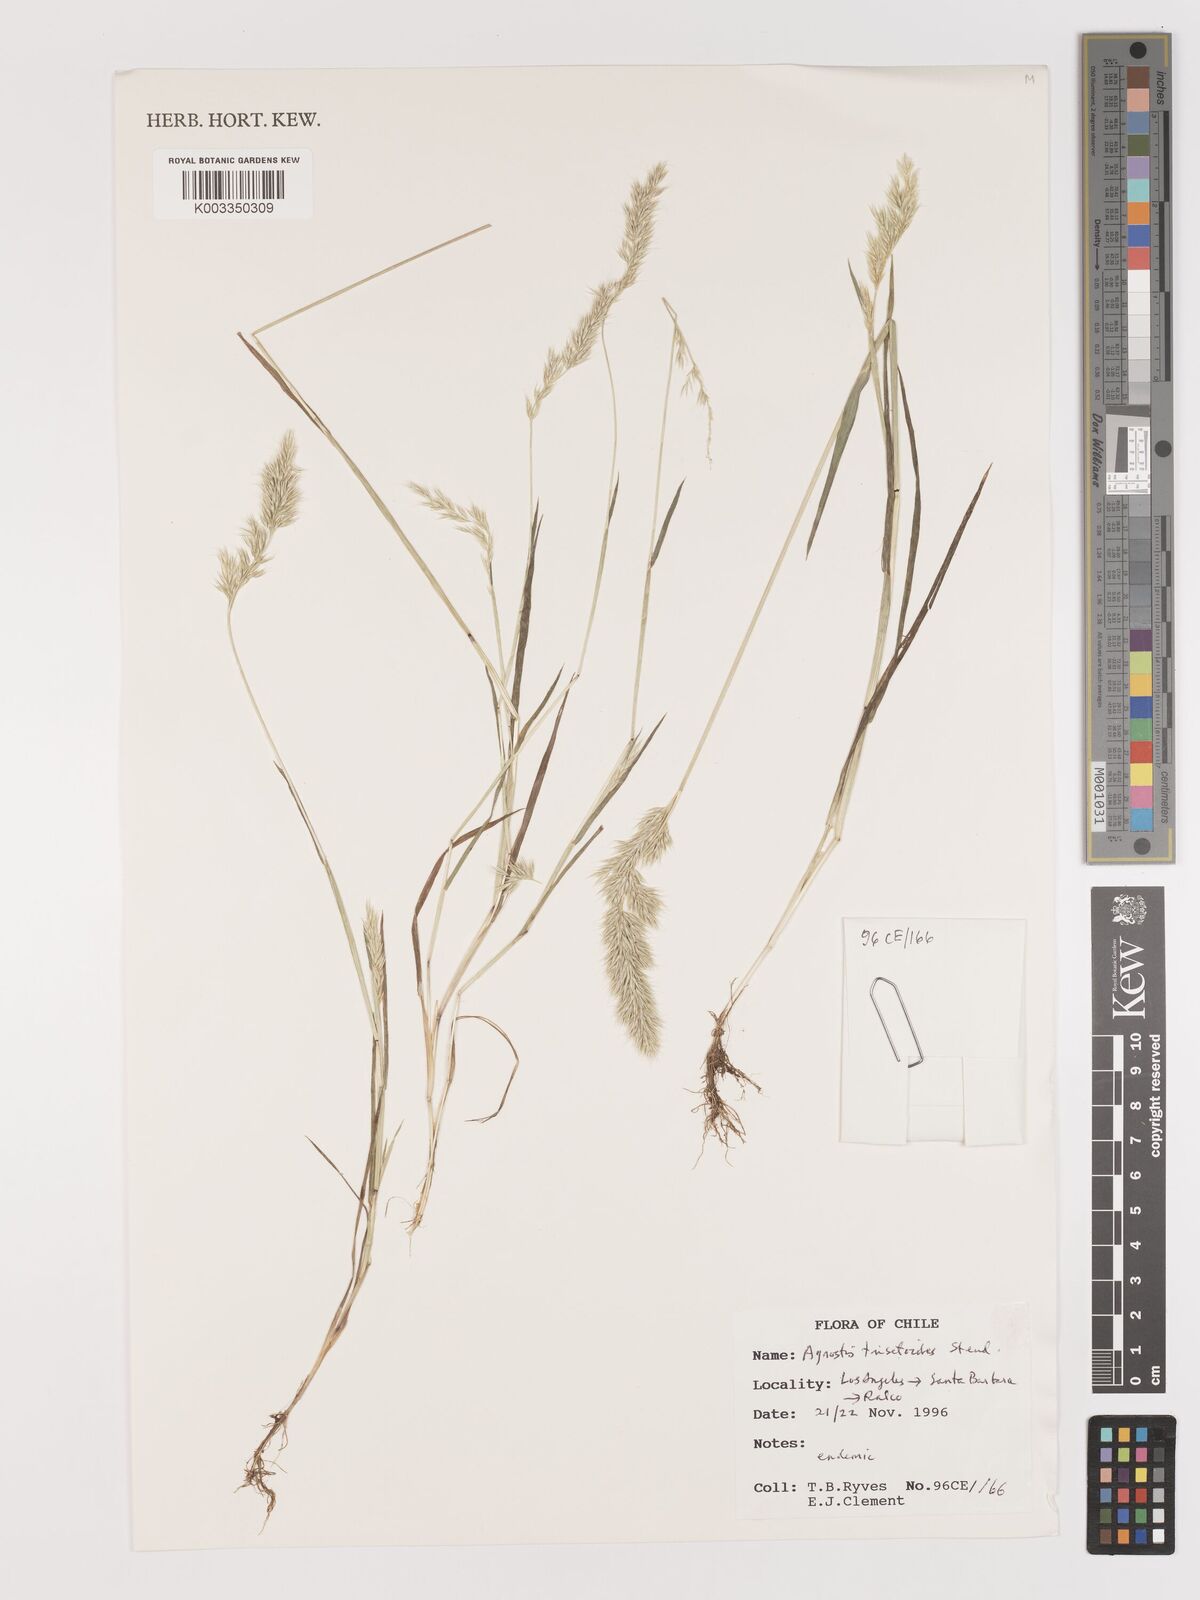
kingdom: Plantae
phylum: Tracheophyta
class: Liliopsida
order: Poales
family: Poaceae
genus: Agrostis
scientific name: Agrostis trisetoides
